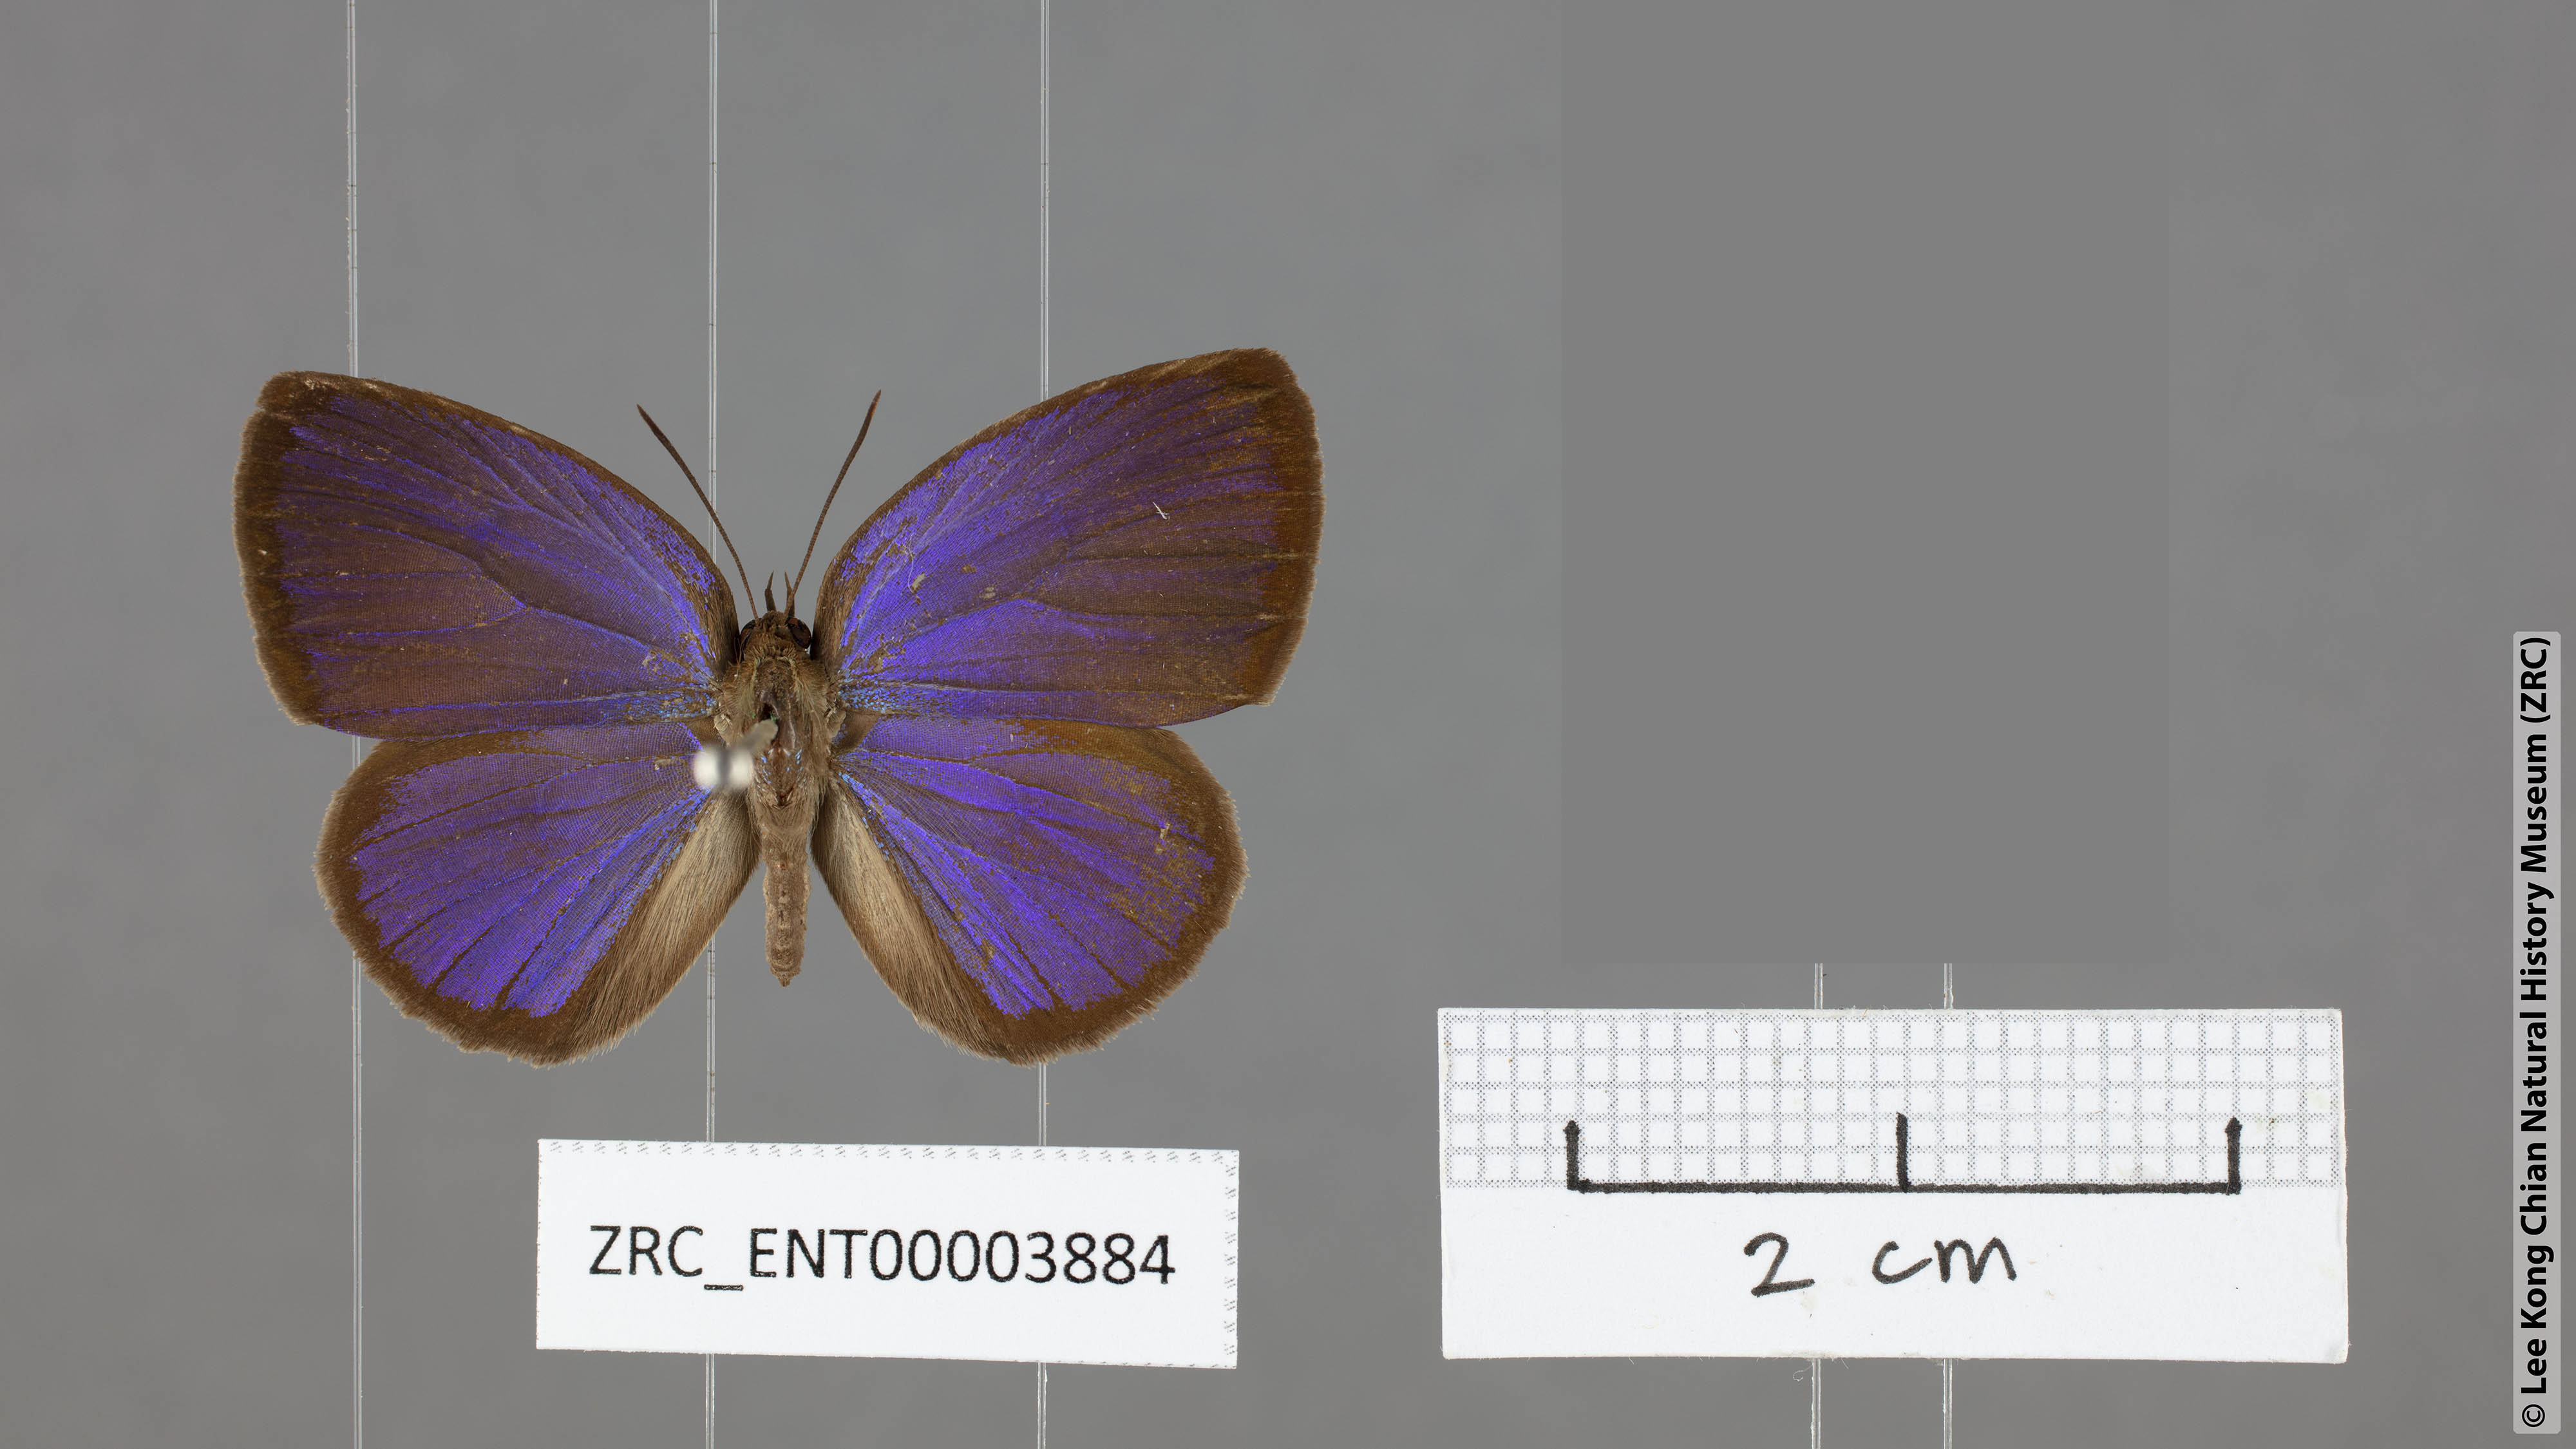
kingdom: Animalia
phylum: Arthropoda
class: Insecta
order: Lepidoptera
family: Lycaenidae
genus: Arhopala
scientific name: Arhopala avathina
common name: Lunulate yellow oakblue
